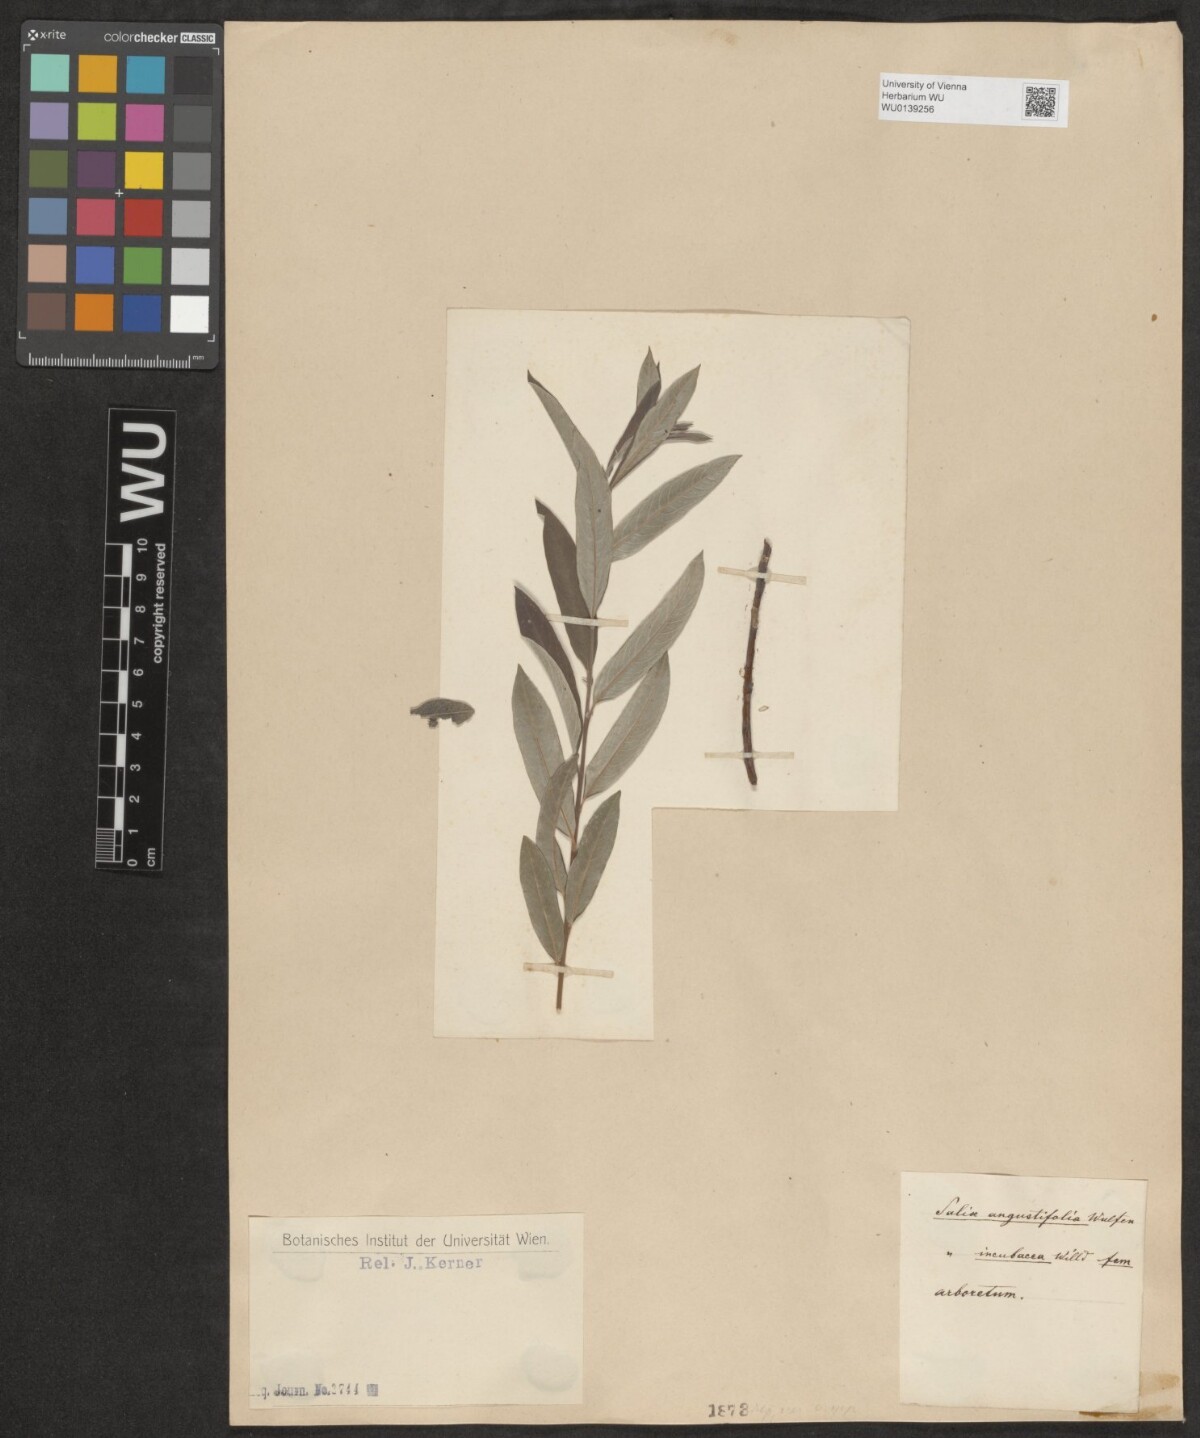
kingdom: Plantae
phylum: Tracheophyta
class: Magnoliopsida
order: Malpighiales
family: Salicaceae
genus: Salix
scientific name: Salix repens
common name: Creeping willow
